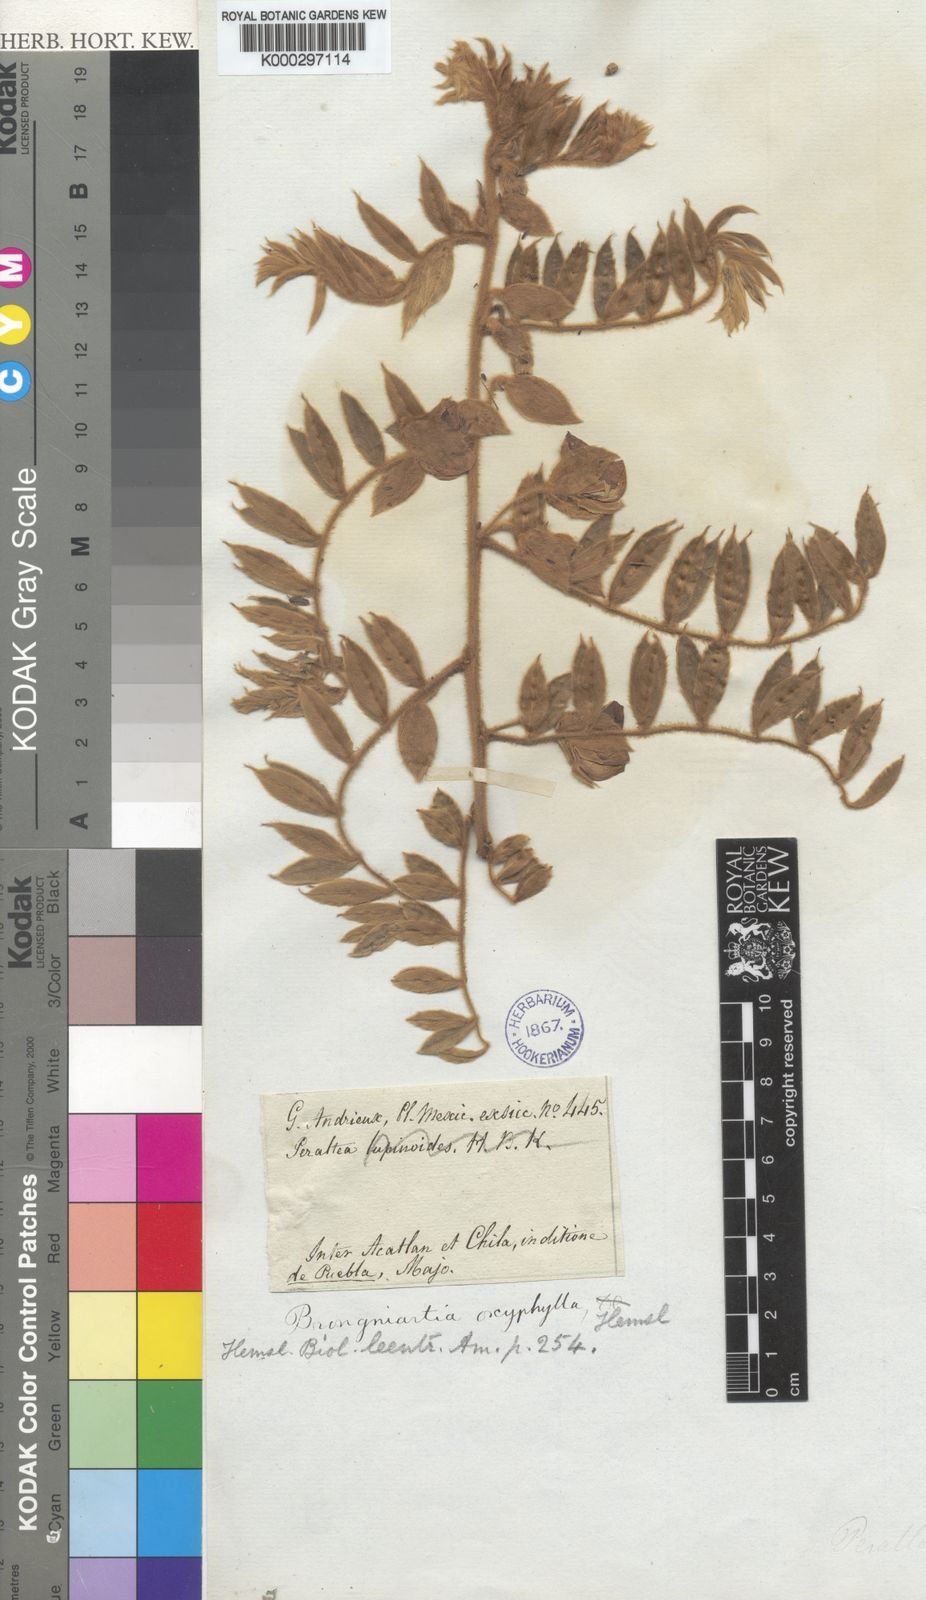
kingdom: Plantae
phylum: Tracheophyta
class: Magnoliopsida
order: Fabales
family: Fabaceae
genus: Brongniartia
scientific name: Brongniartia lupinoides
